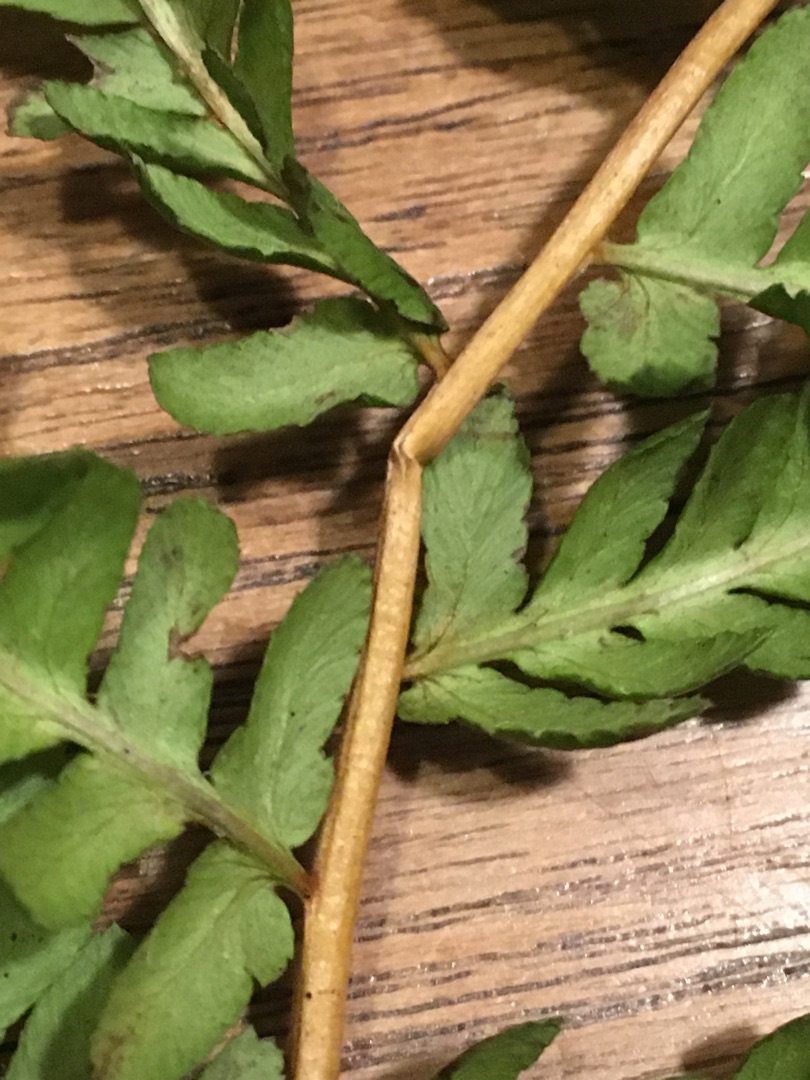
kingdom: Plantae
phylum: Tracheophyta
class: Polypodiopsida
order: Polypodiales
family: Dryopteridaceae
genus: Dryopteris
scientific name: Dryopteris filix-mas
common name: Almindelig mangeløv
